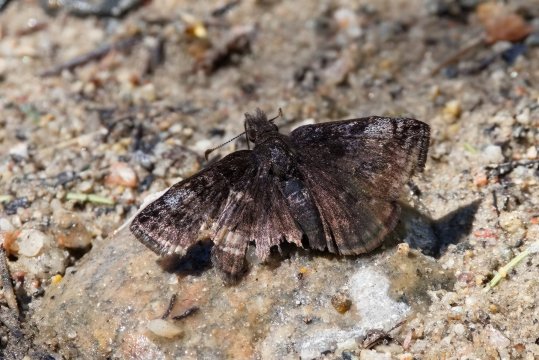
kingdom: Animalia
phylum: Arthropoda
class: Insecta
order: Lepidoptera
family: Hesperiidae
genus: Erynnis
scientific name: Erynnis icelus
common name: Dreamy Duskywing
